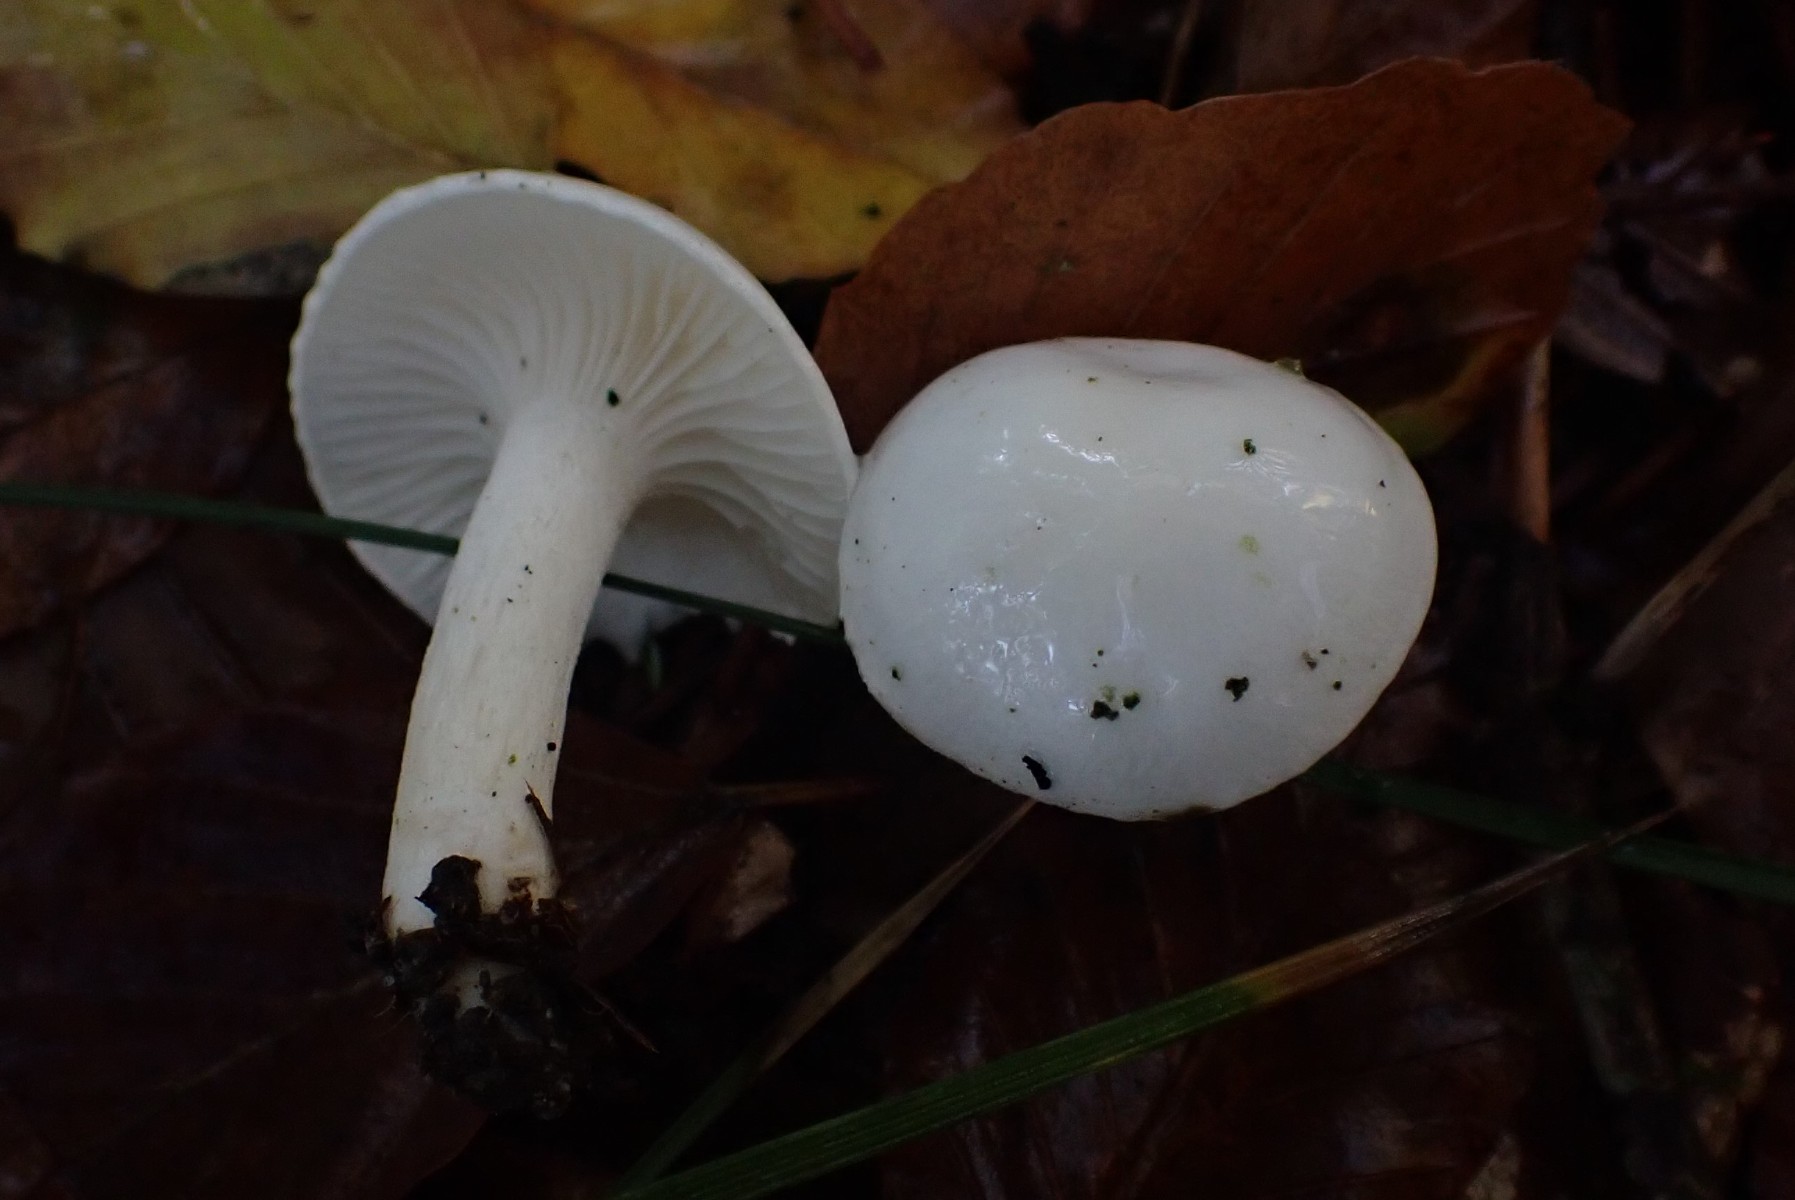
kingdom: Fungi
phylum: Basidiomycota
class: Agaricomycetes
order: Agaricales
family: Hygrophoraceae
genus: Hygrophorus
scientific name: Hygrophorus eburneus
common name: elfenbens-sneglehat
